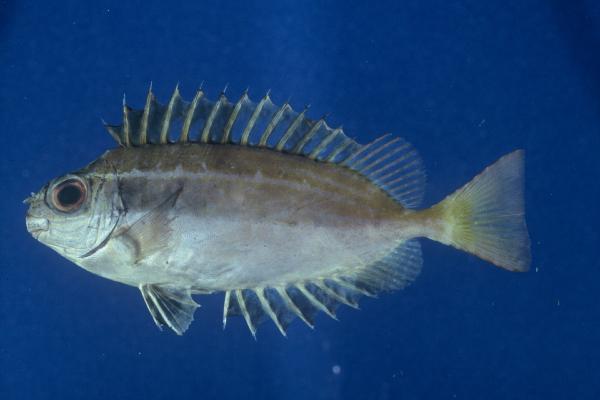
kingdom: Animalia
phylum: Chordata
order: Perciformes
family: Siganidae
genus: Siganus
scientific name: Siganus luridus
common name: Dusky spinefoot
